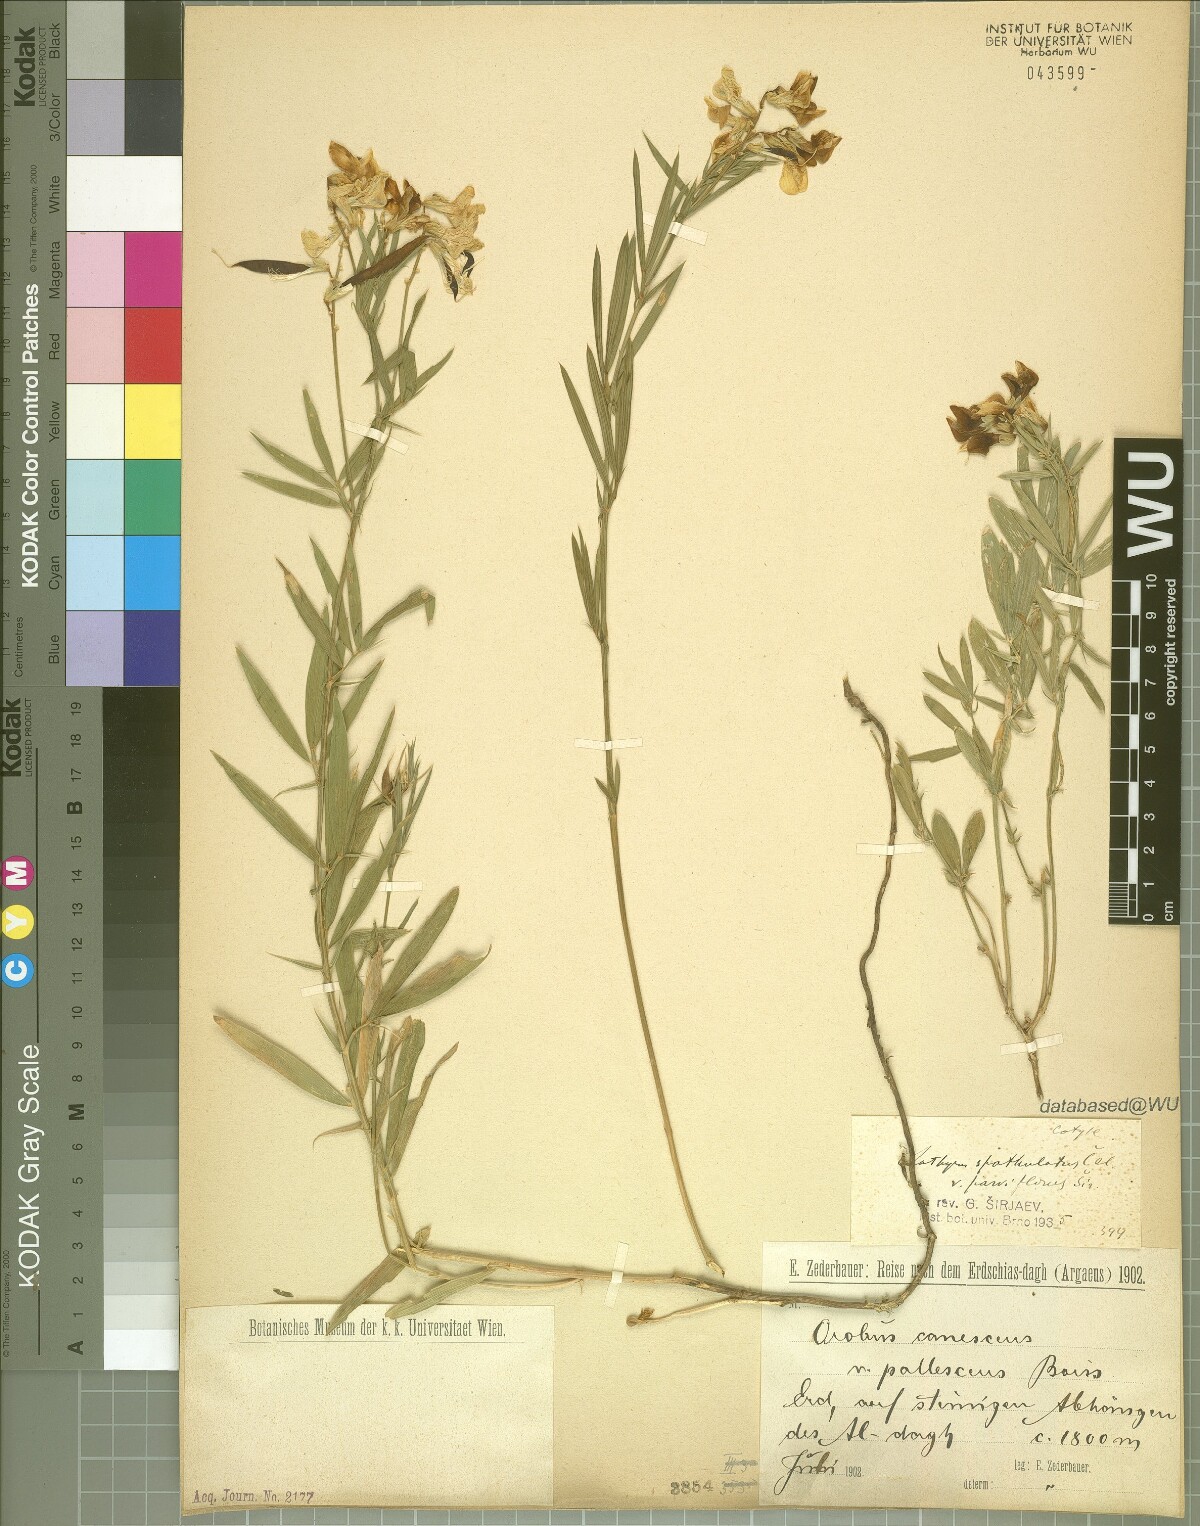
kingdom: Plantae
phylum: Tracheophyta
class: Magnoliopsida
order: Fabales
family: Fabaceae
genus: Lathyrus
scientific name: Lathyrus spathulatus
